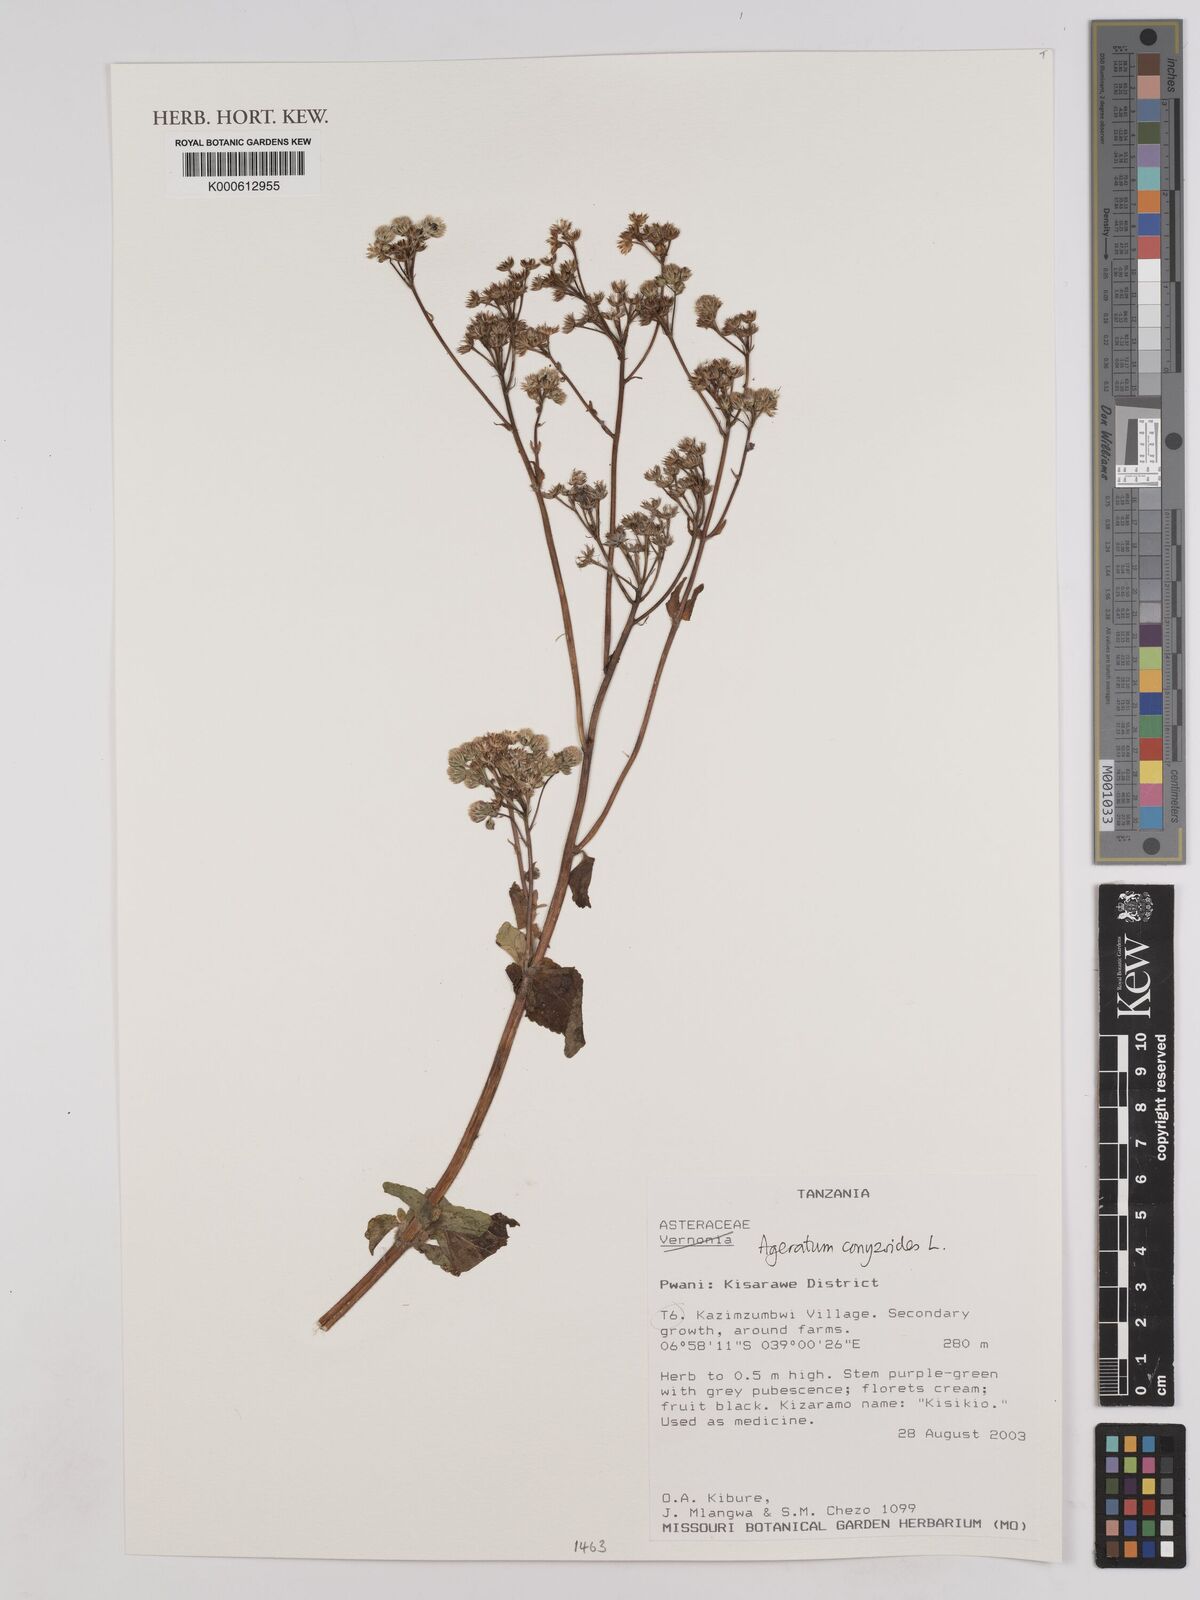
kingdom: Plantae
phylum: Tracheophyta
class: Magnoliopsida
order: Asterales
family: Asteraceae
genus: Ageratum
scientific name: Ageratum conyzoides
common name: Tropical whiteweed
